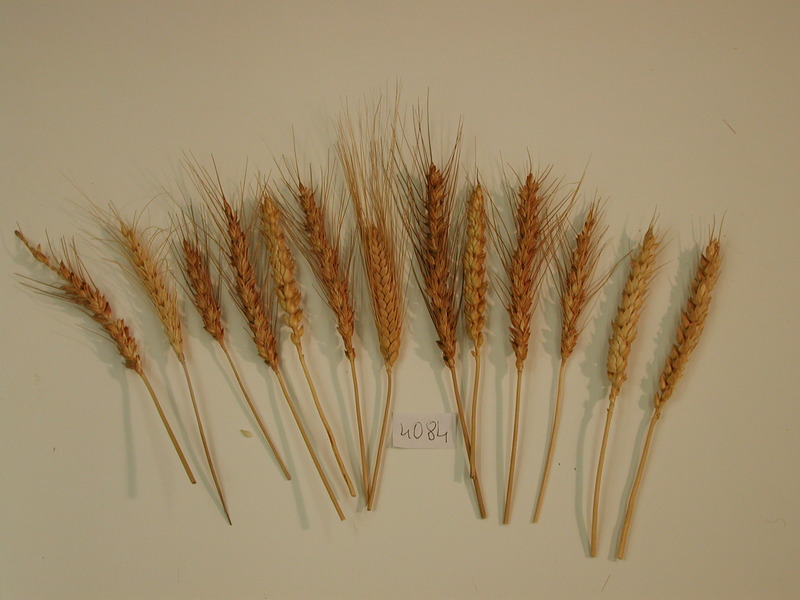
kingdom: Plantae
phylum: Tracheophyta
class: Liliopsida
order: Poales
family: Poaceae
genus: Triticum
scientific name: Triticum aestivum
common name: Wheat
